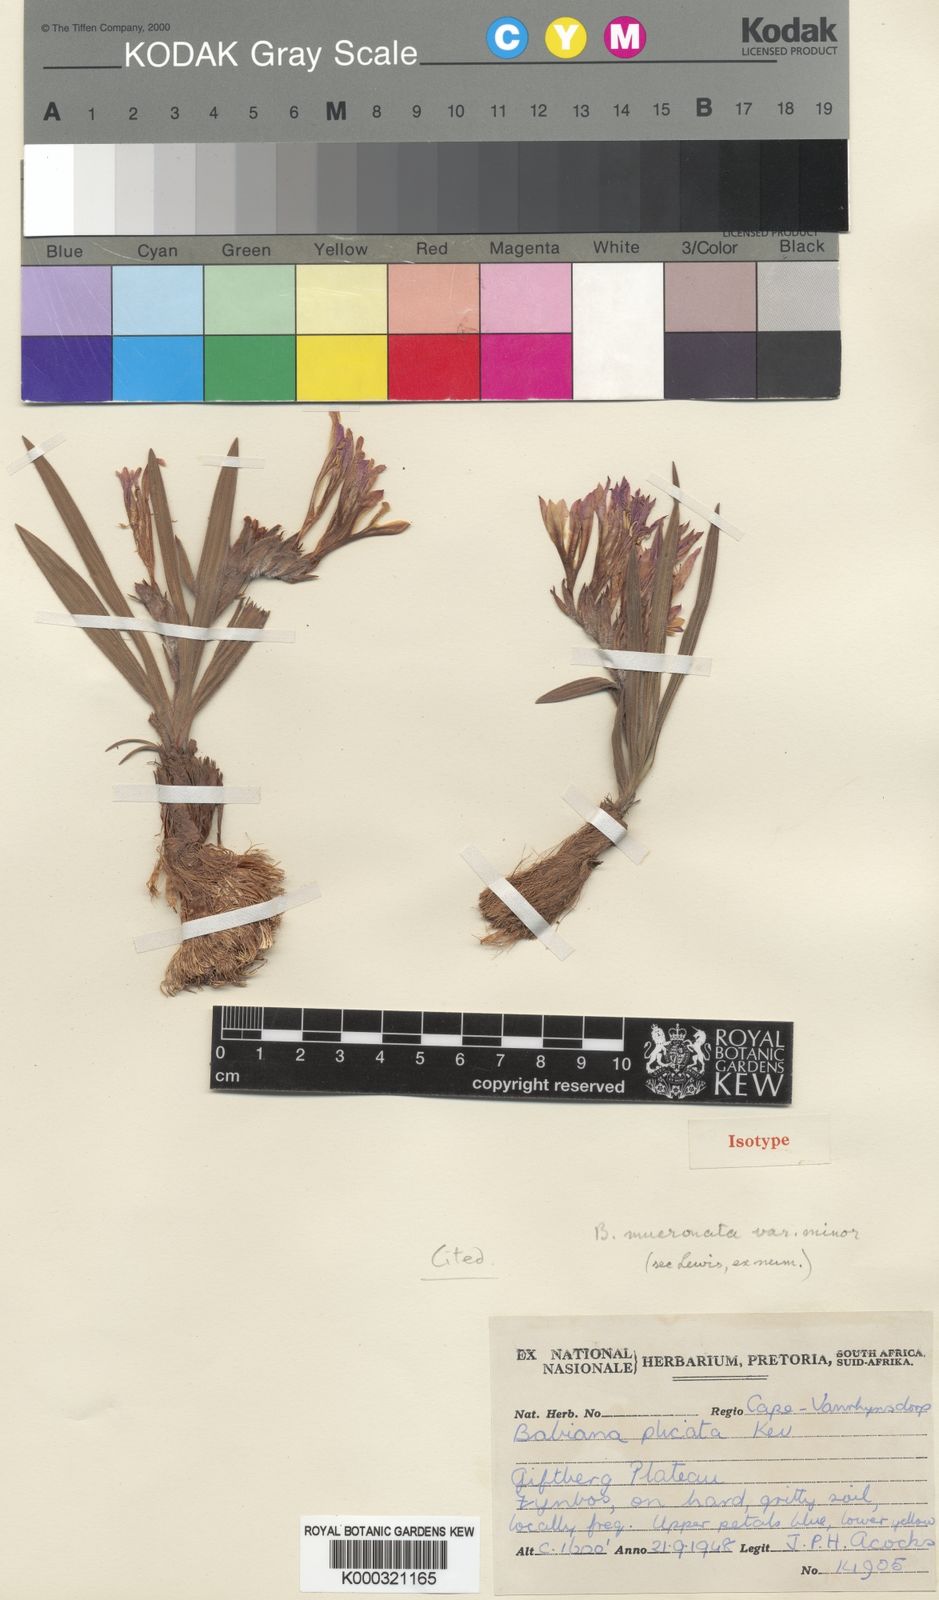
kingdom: Plantae
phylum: Tracheophyta
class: Liliopsida
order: Asparagales
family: Iridaceae
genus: Babiana
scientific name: Babiana mucronata
